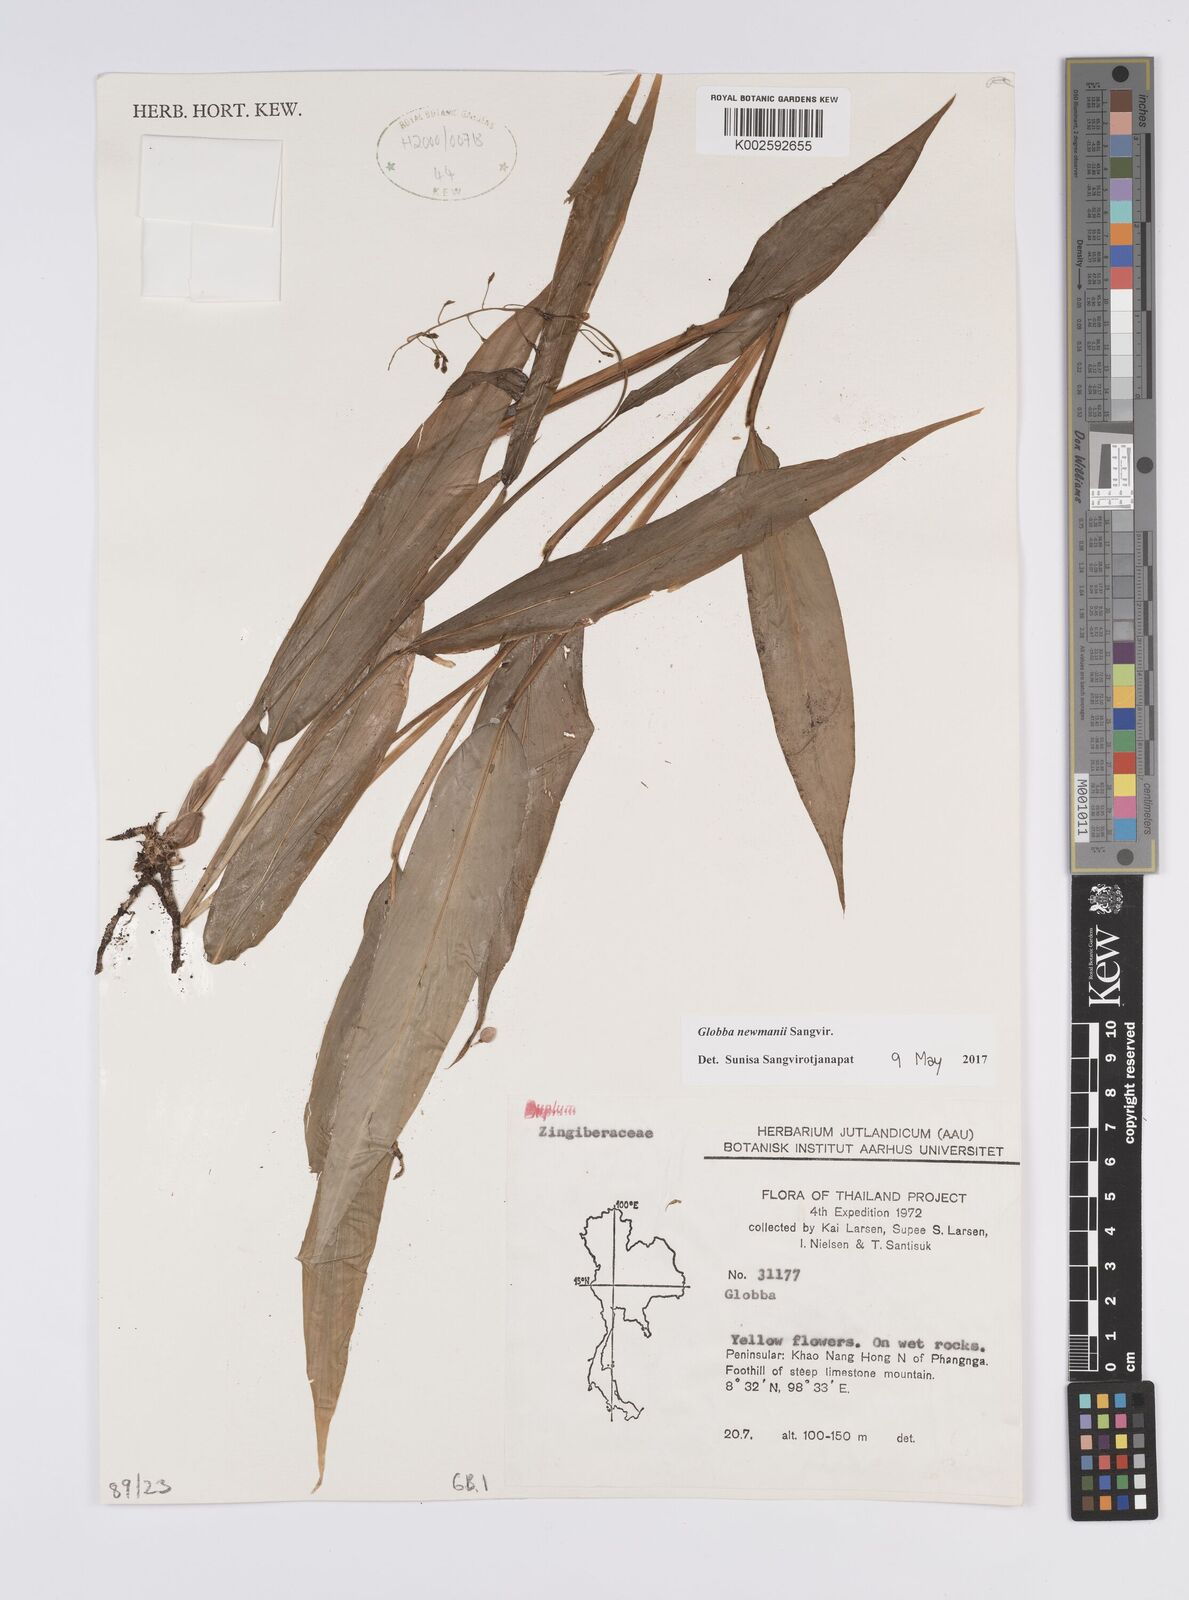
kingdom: Plantae
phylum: Tracheophyta
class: Liliopsida
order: Zingiberales
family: Zingiberaceae
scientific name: Zingiberaceae
